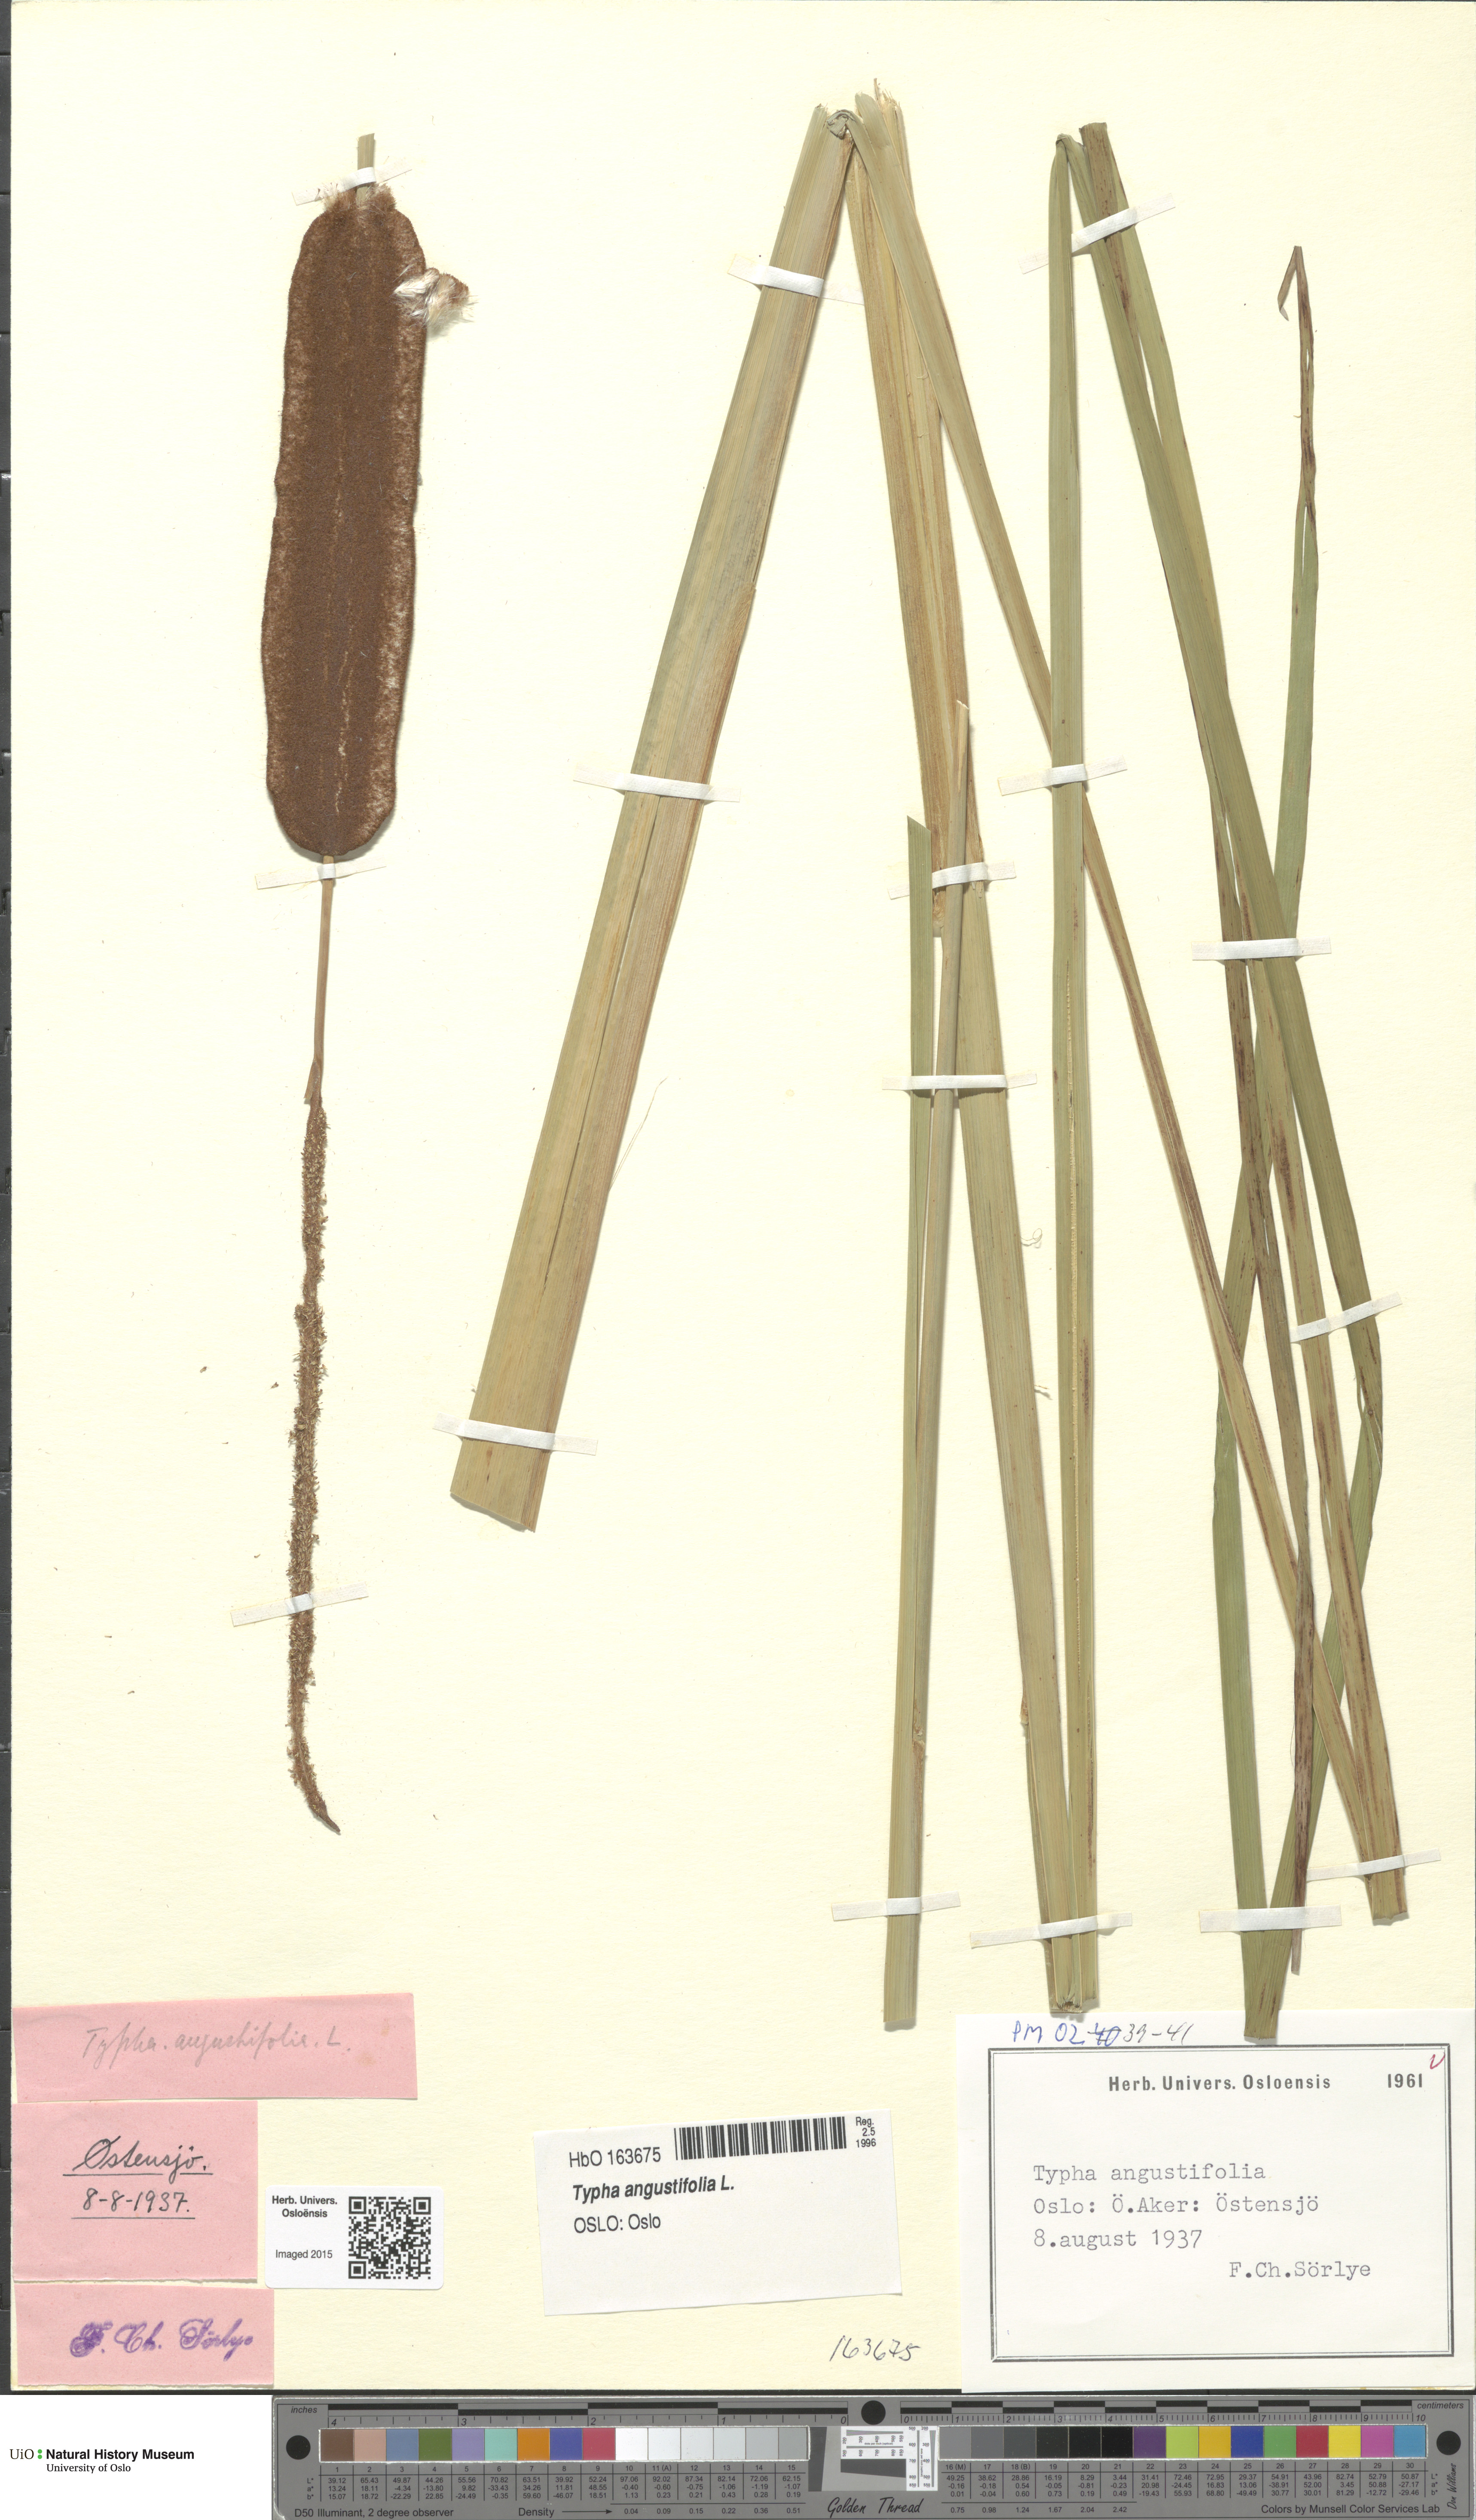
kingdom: Plantae
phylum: Tracheophyta
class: Liliopsida
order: Poales
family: Typhaceae
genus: Typha
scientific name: Typha angustifolia
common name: Lesser bulrush
